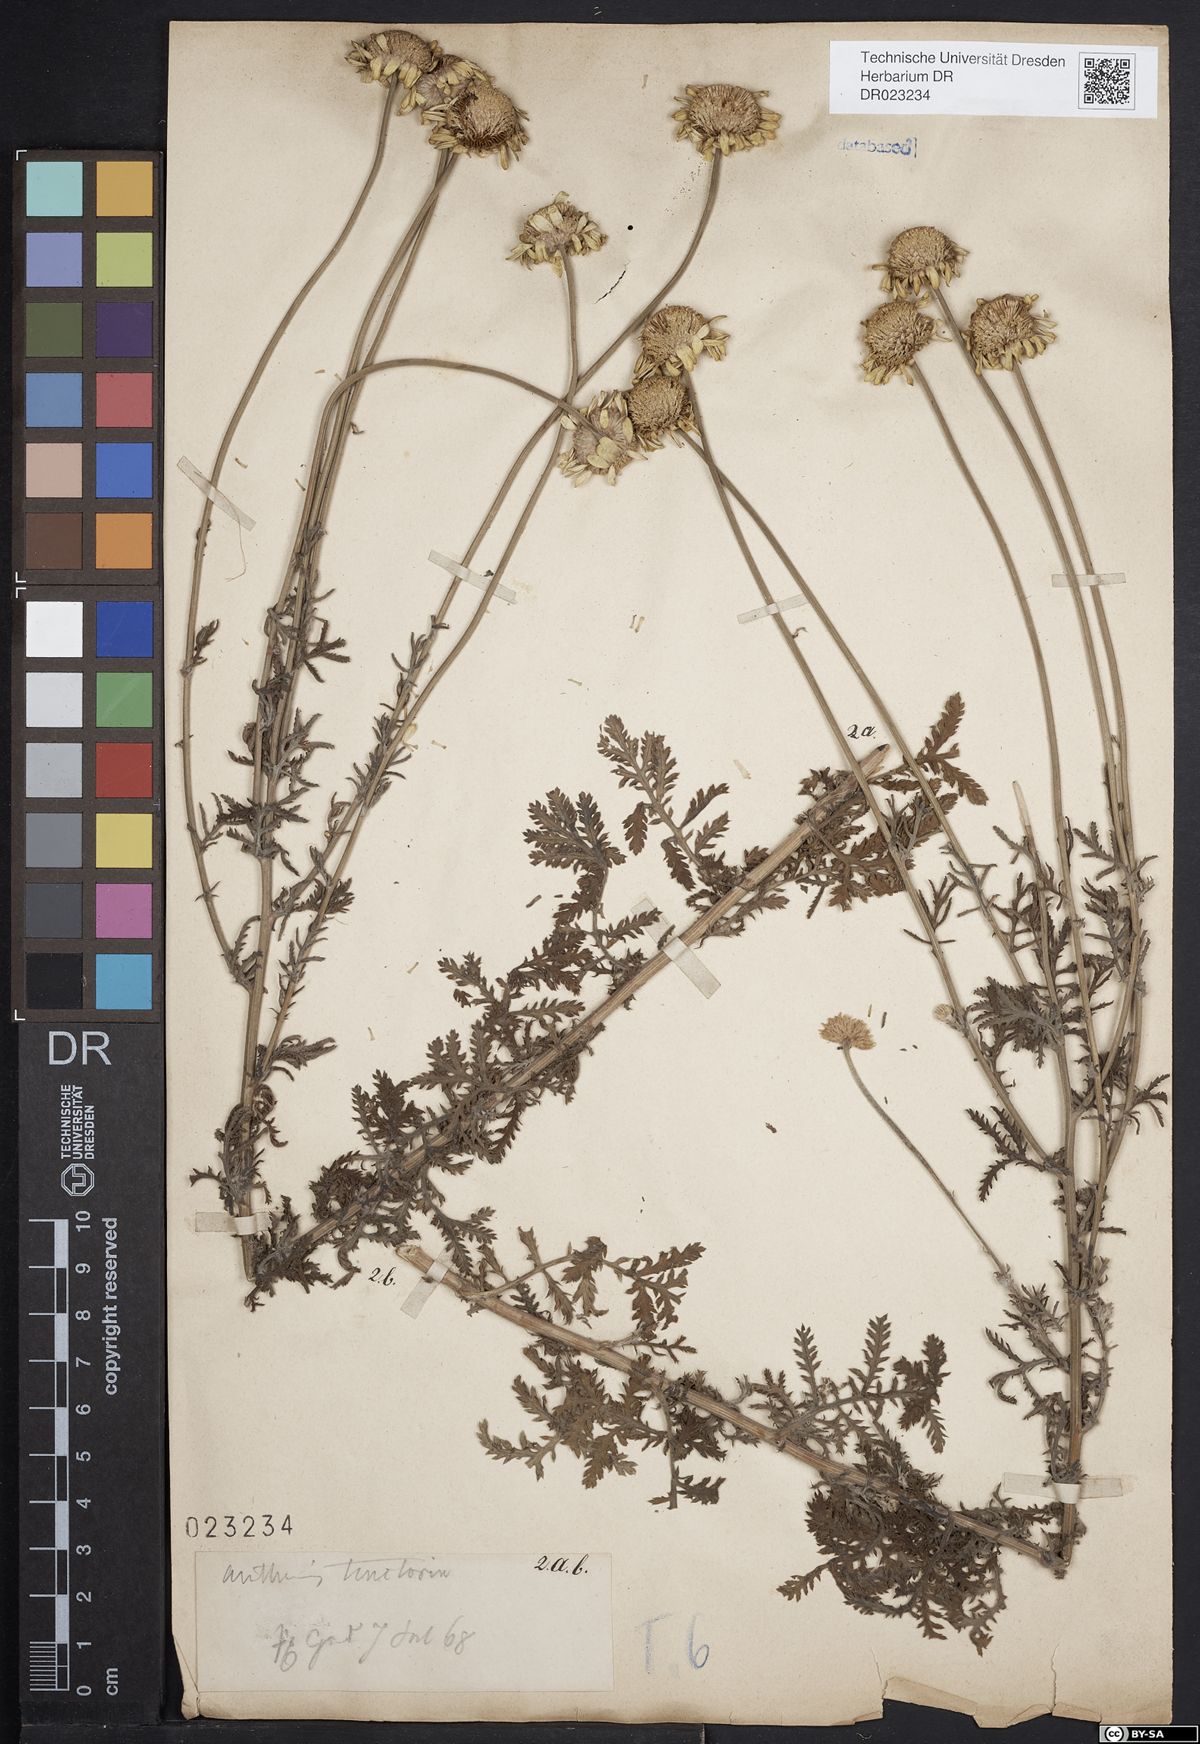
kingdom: Plantae
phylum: Tracheophyta
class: Magnoliopsida
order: Asterales
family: Asteraceae
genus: Cota
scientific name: Cota tinctoria
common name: Golden chamomile
